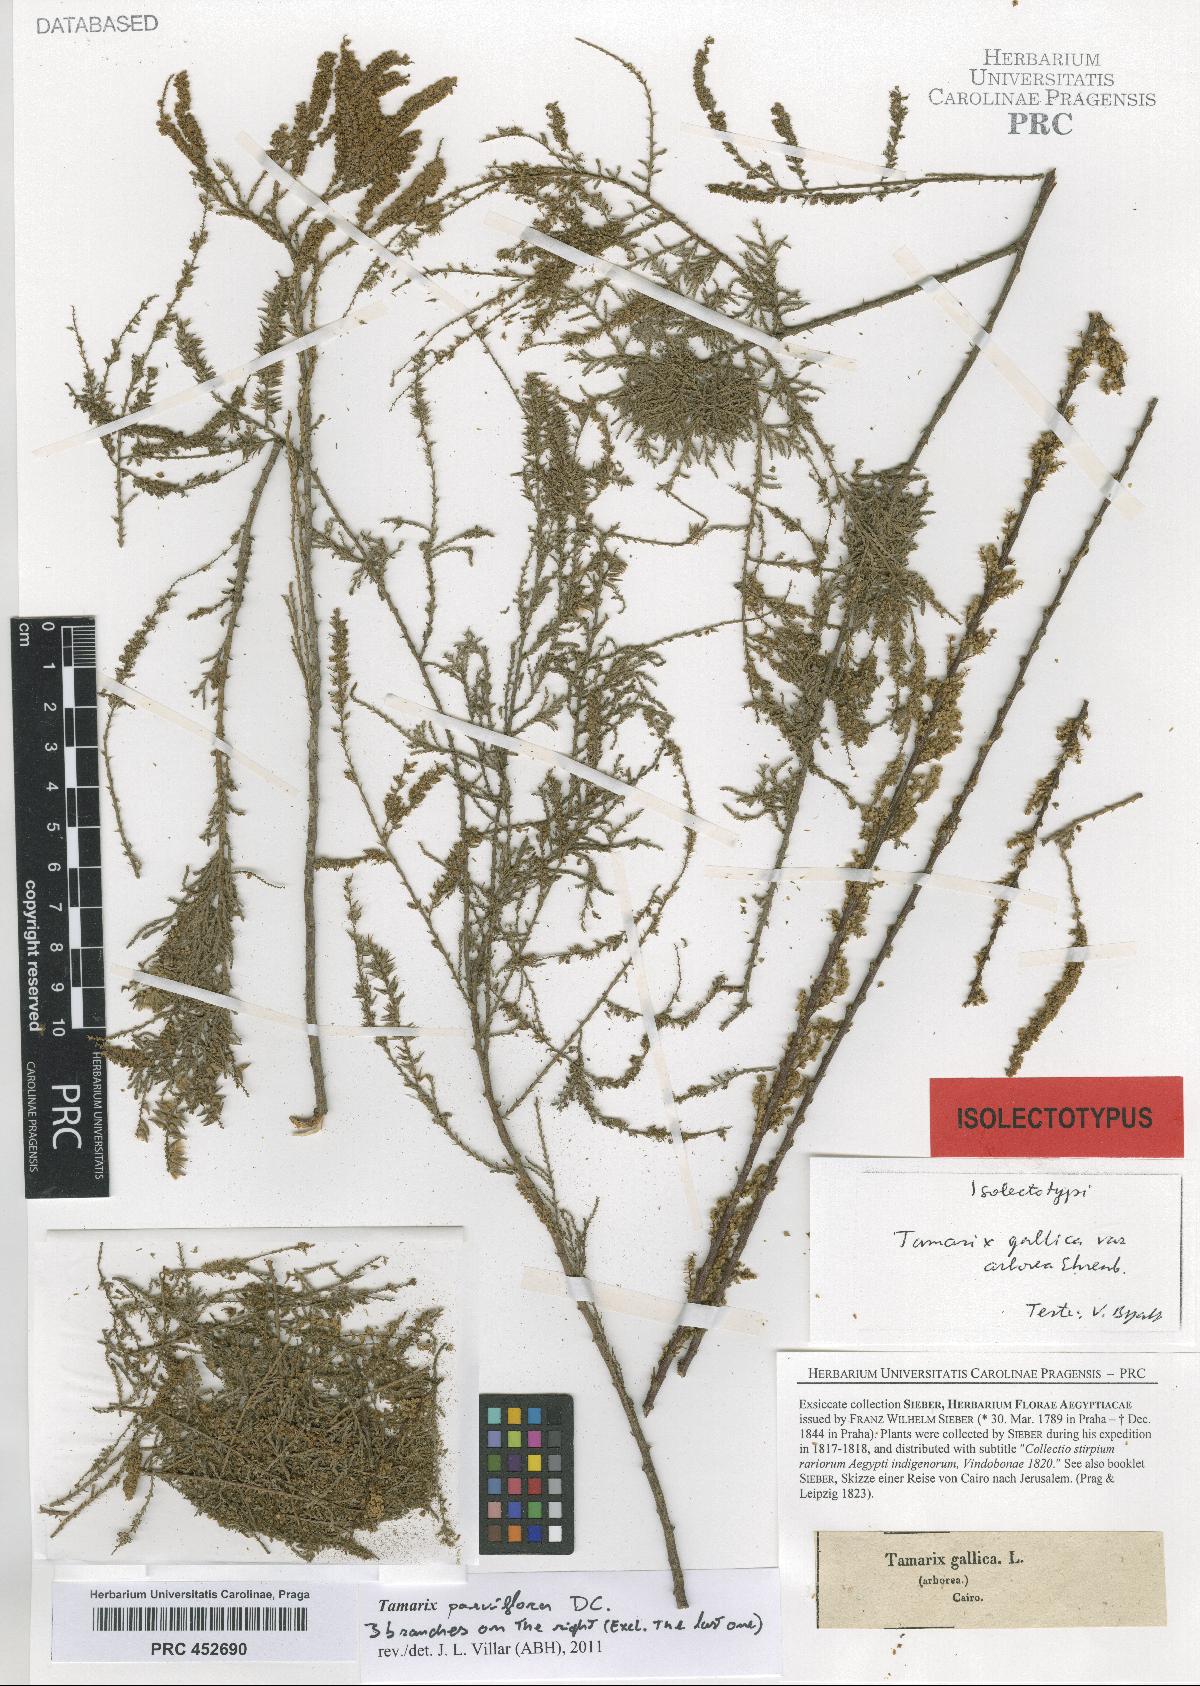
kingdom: Plantae
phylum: Tracheophyta
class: Magnoliopsida
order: Caryophyllales
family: Tamaricaceae
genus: Tamarix
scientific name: Tamarix
